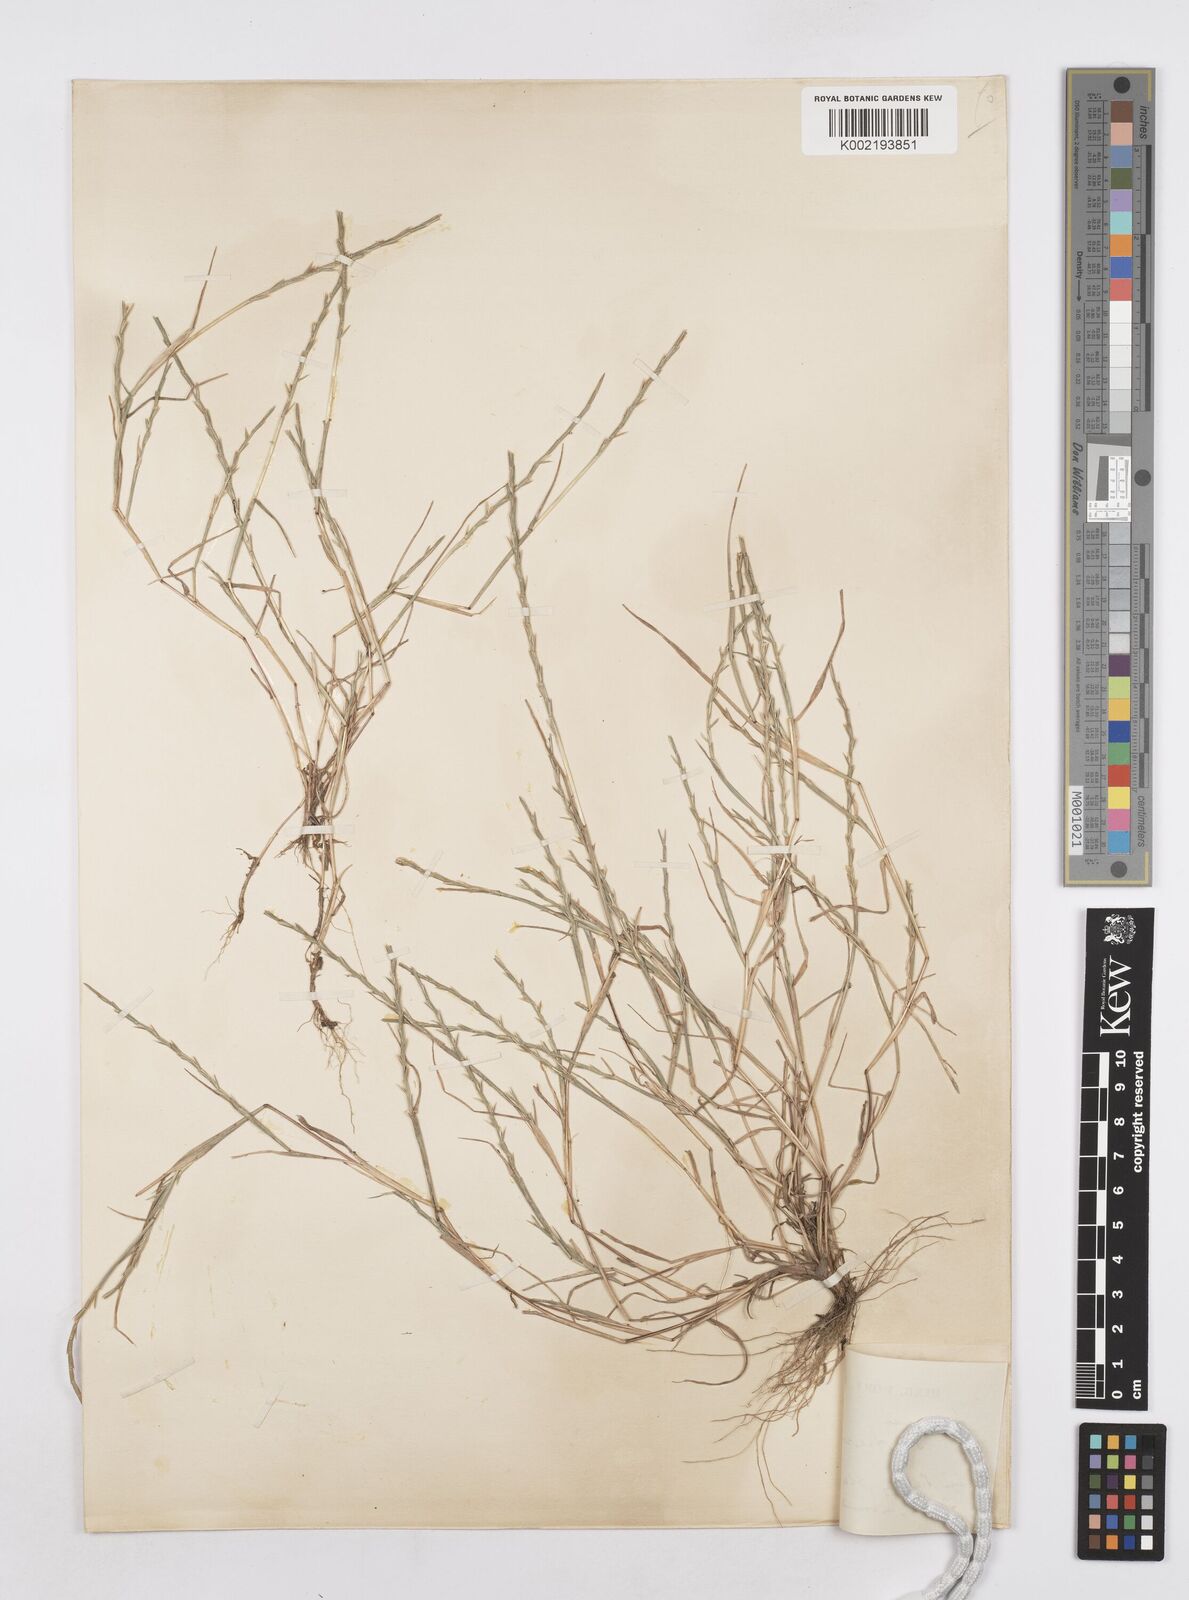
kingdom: Plantae
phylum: Tracheophyta
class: Liliopsida
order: Poales
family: Poaceae
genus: Parapholis
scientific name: Parapholis strigosa
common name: Hard-grass
